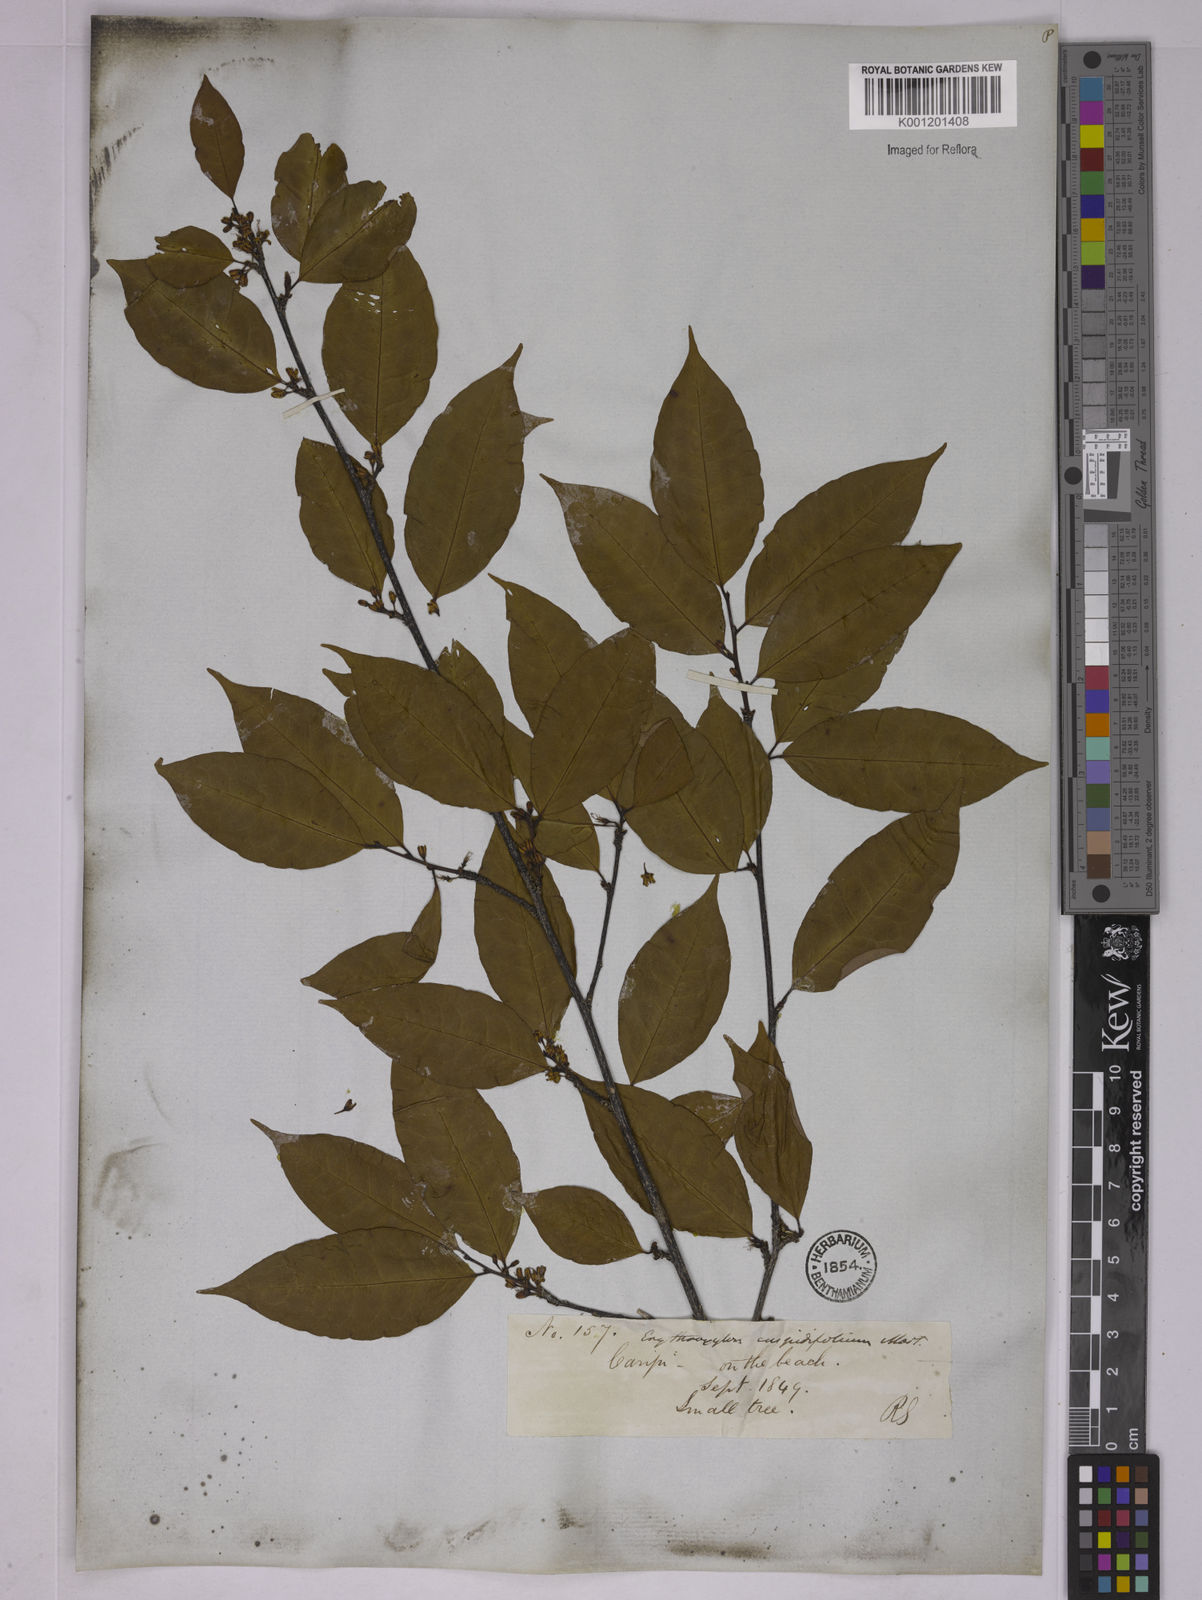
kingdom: Plantae
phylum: Tracheophyta
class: Magnoliopsida
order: Malpighiales
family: Erythroxylaceae
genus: Erythroxylum
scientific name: Erythroxylum cuspidifolium
